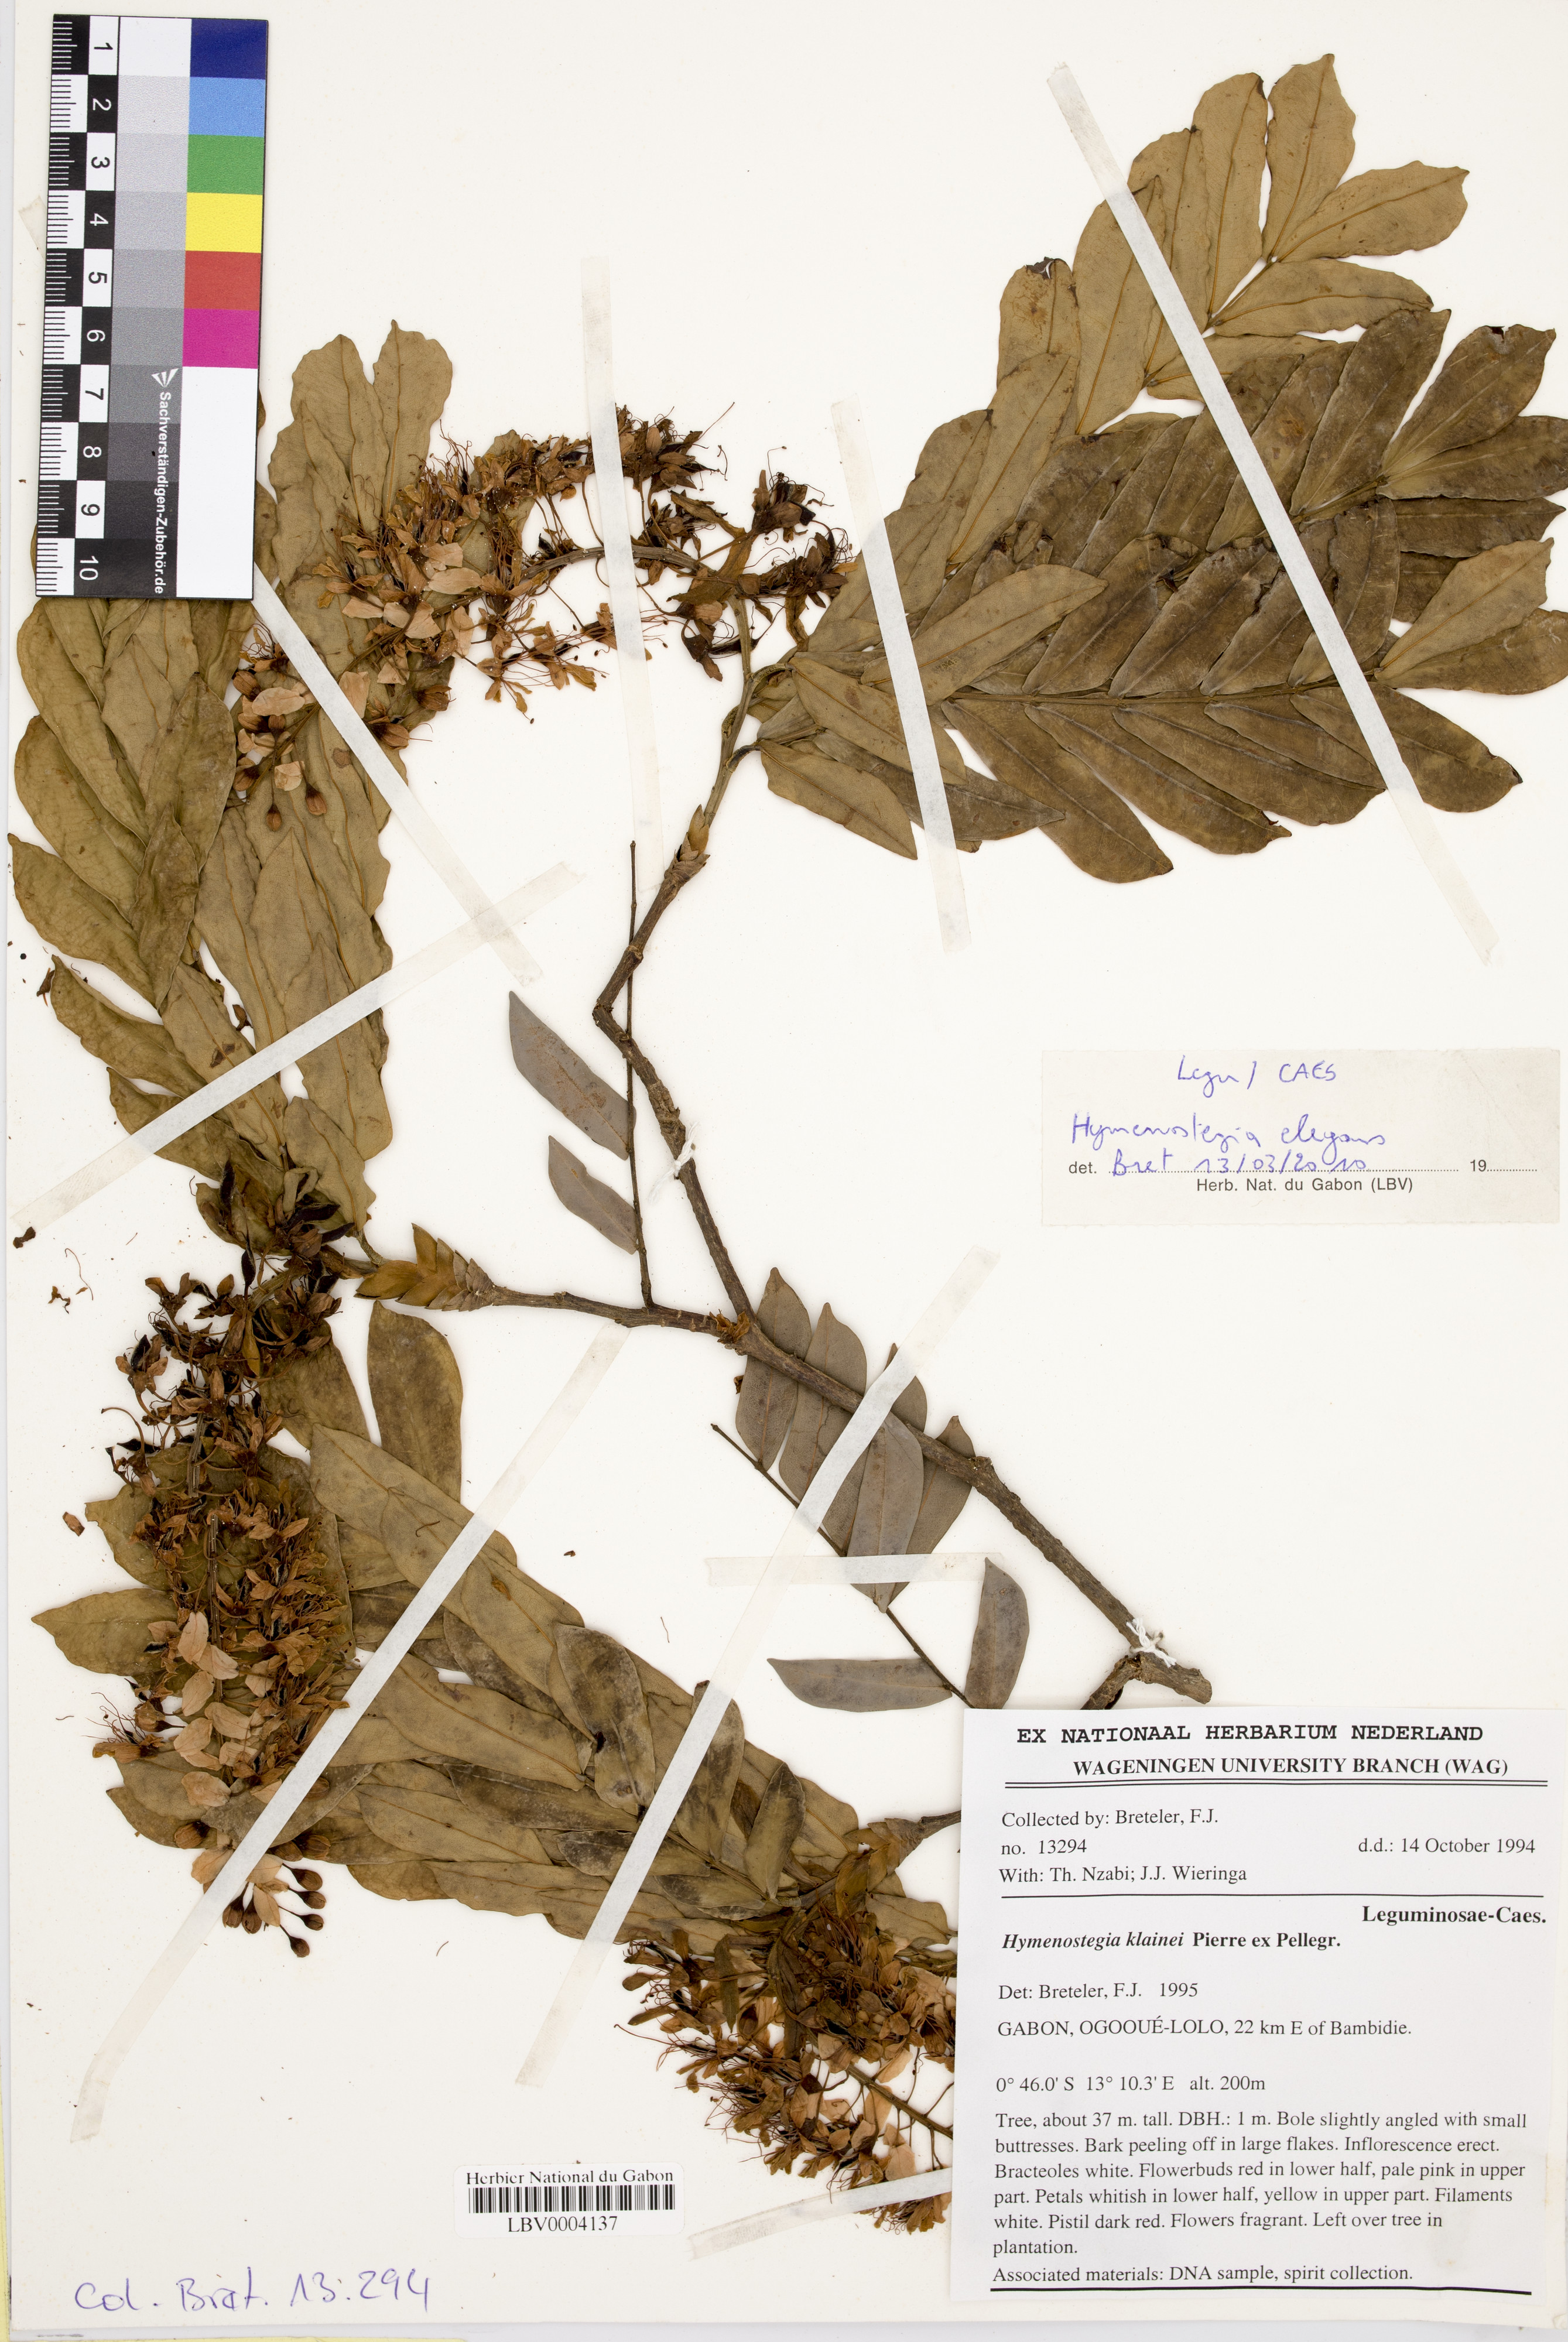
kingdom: Plantae
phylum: Tracheophyta
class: Magnoliopsida
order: Fabales
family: Fabaceae
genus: Hymenostegia
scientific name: Hymenostegia elegans
